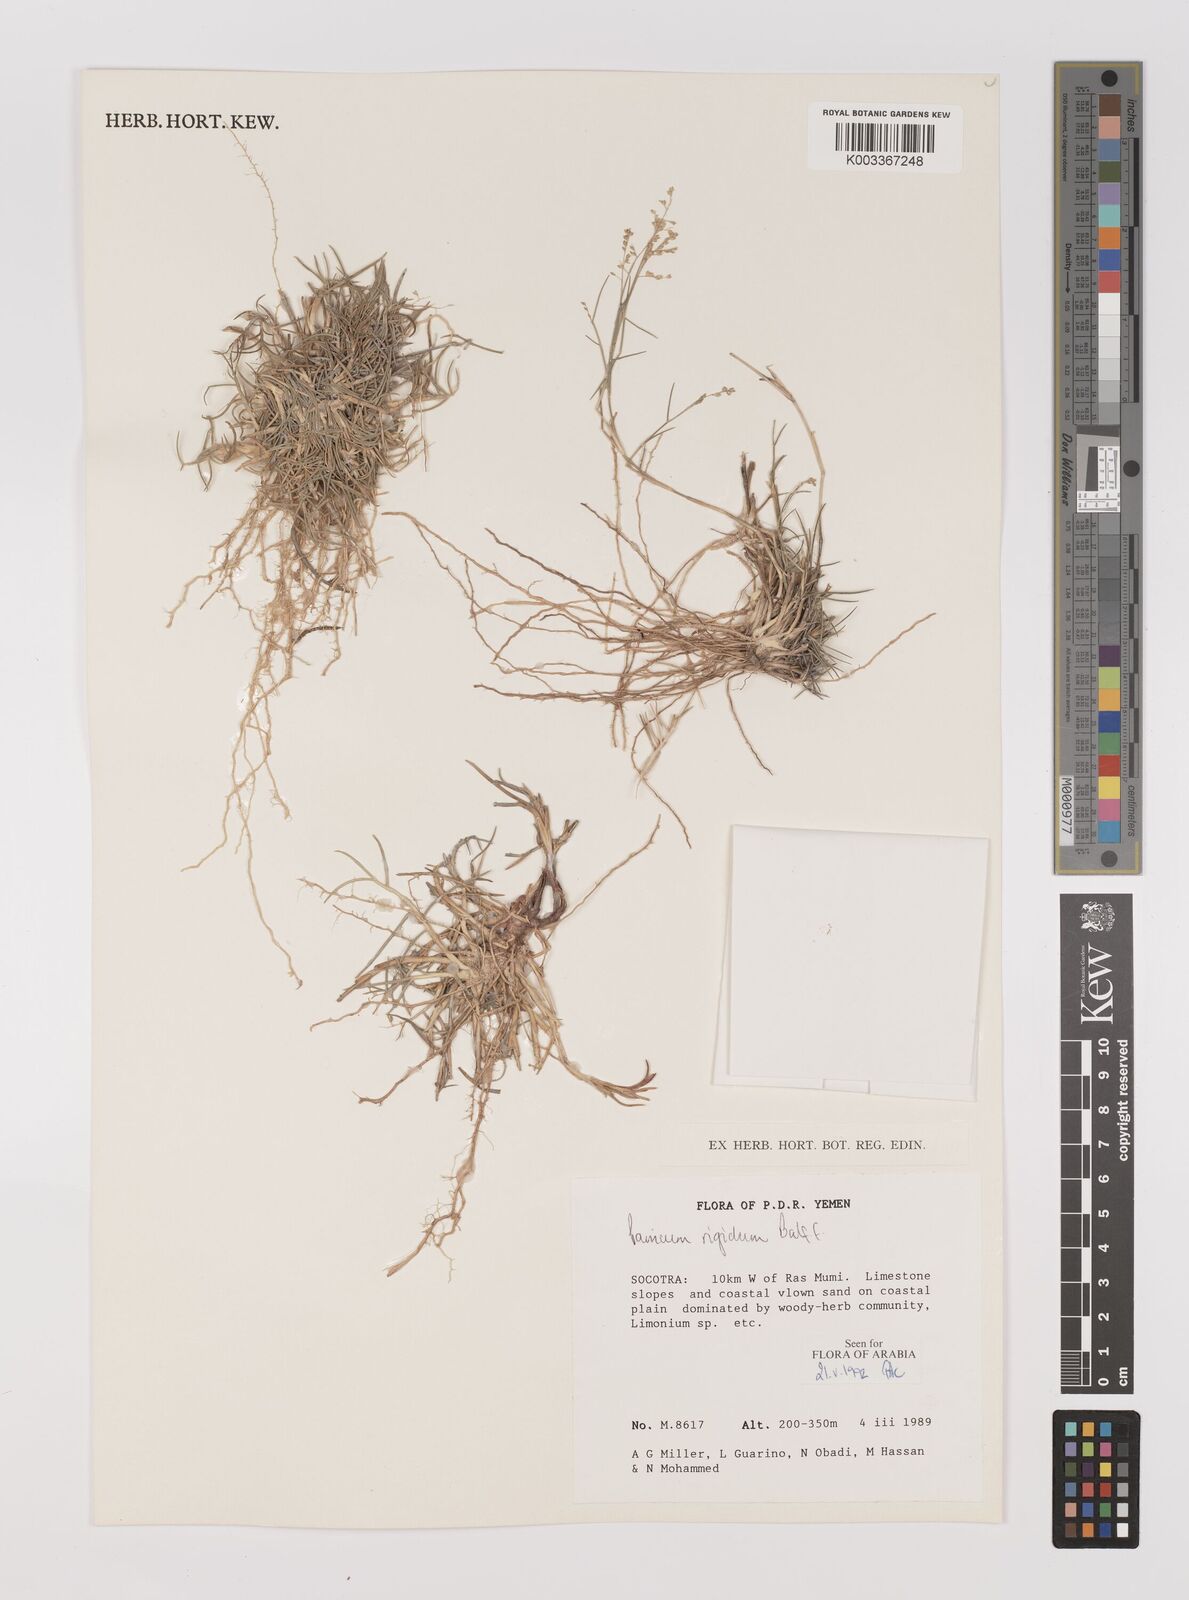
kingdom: Plantae
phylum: Tracheophyta
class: Liliopsida
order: Poales
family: Poaceae
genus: Panicum
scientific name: Panicum rigidum
